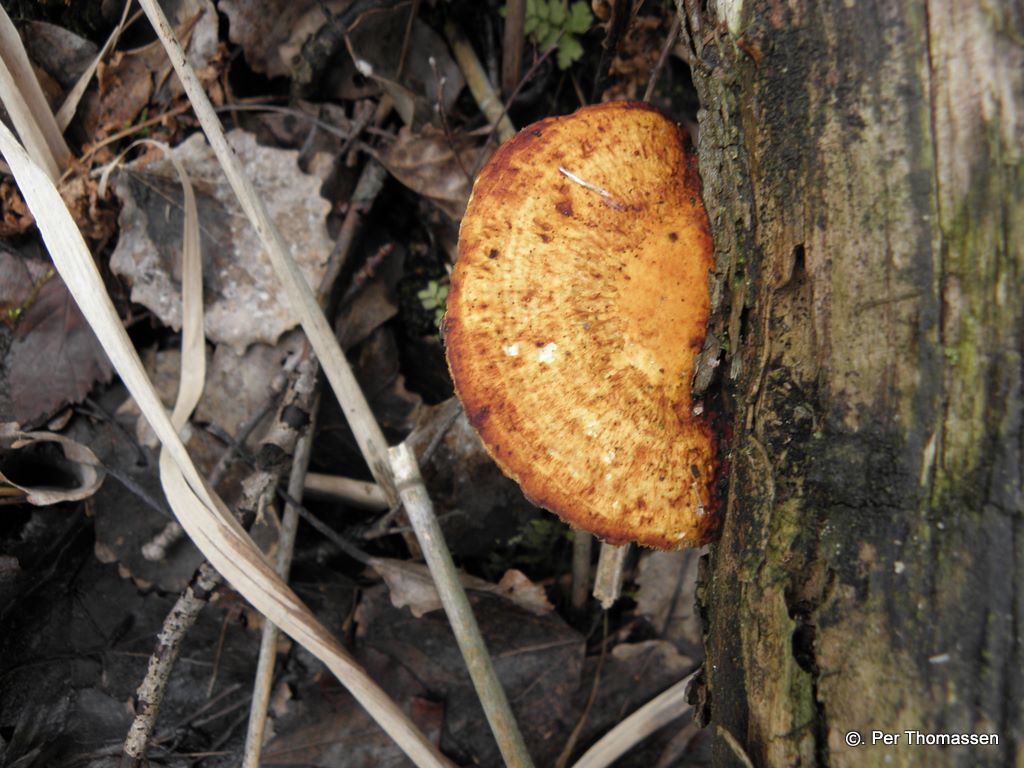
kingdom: Fungi
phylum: Basidiomycota
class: Agaricomycetes
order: Polyporales
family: Polyporaceae
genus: Daedaleopsis
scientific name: Daedaleopsis confragosa
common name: rødmende læderporesvamp
